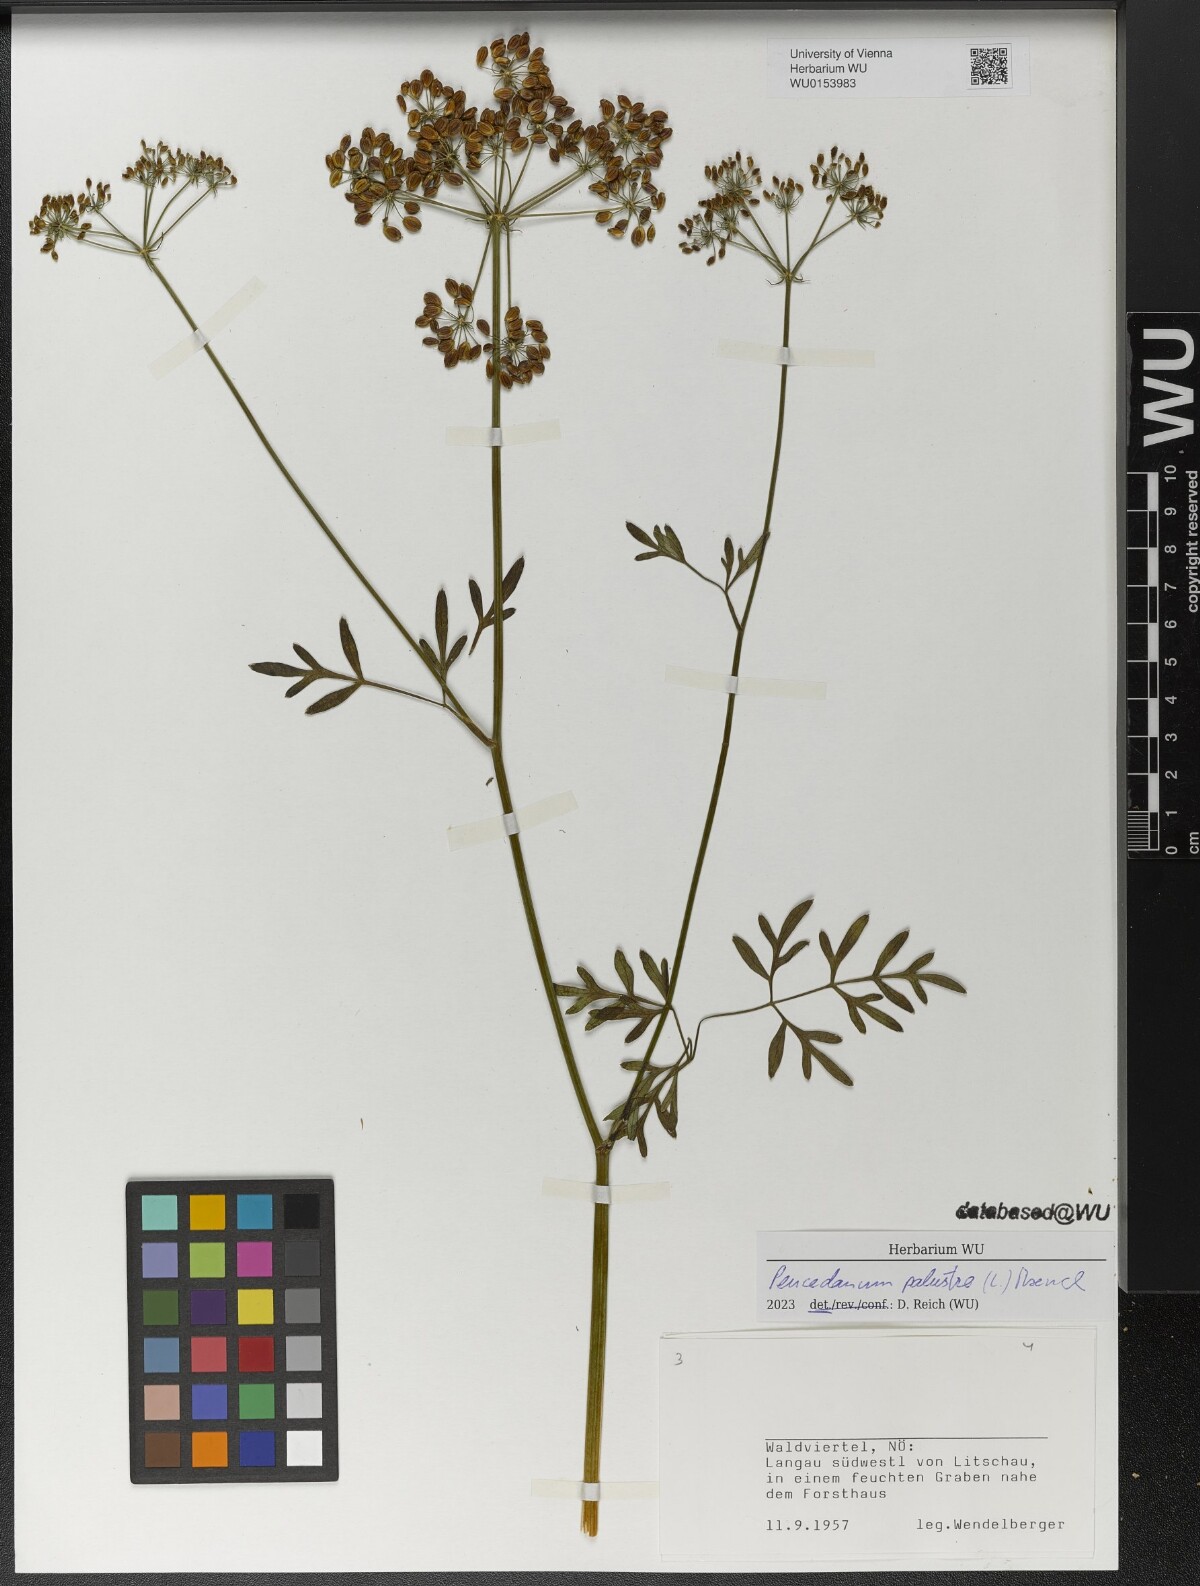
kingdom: Plantae
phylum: Tracheophyta
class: Magnoliopsida
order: Apiales
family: Apiaceae
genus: Thysselinum
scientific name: Thysselinum palustre
